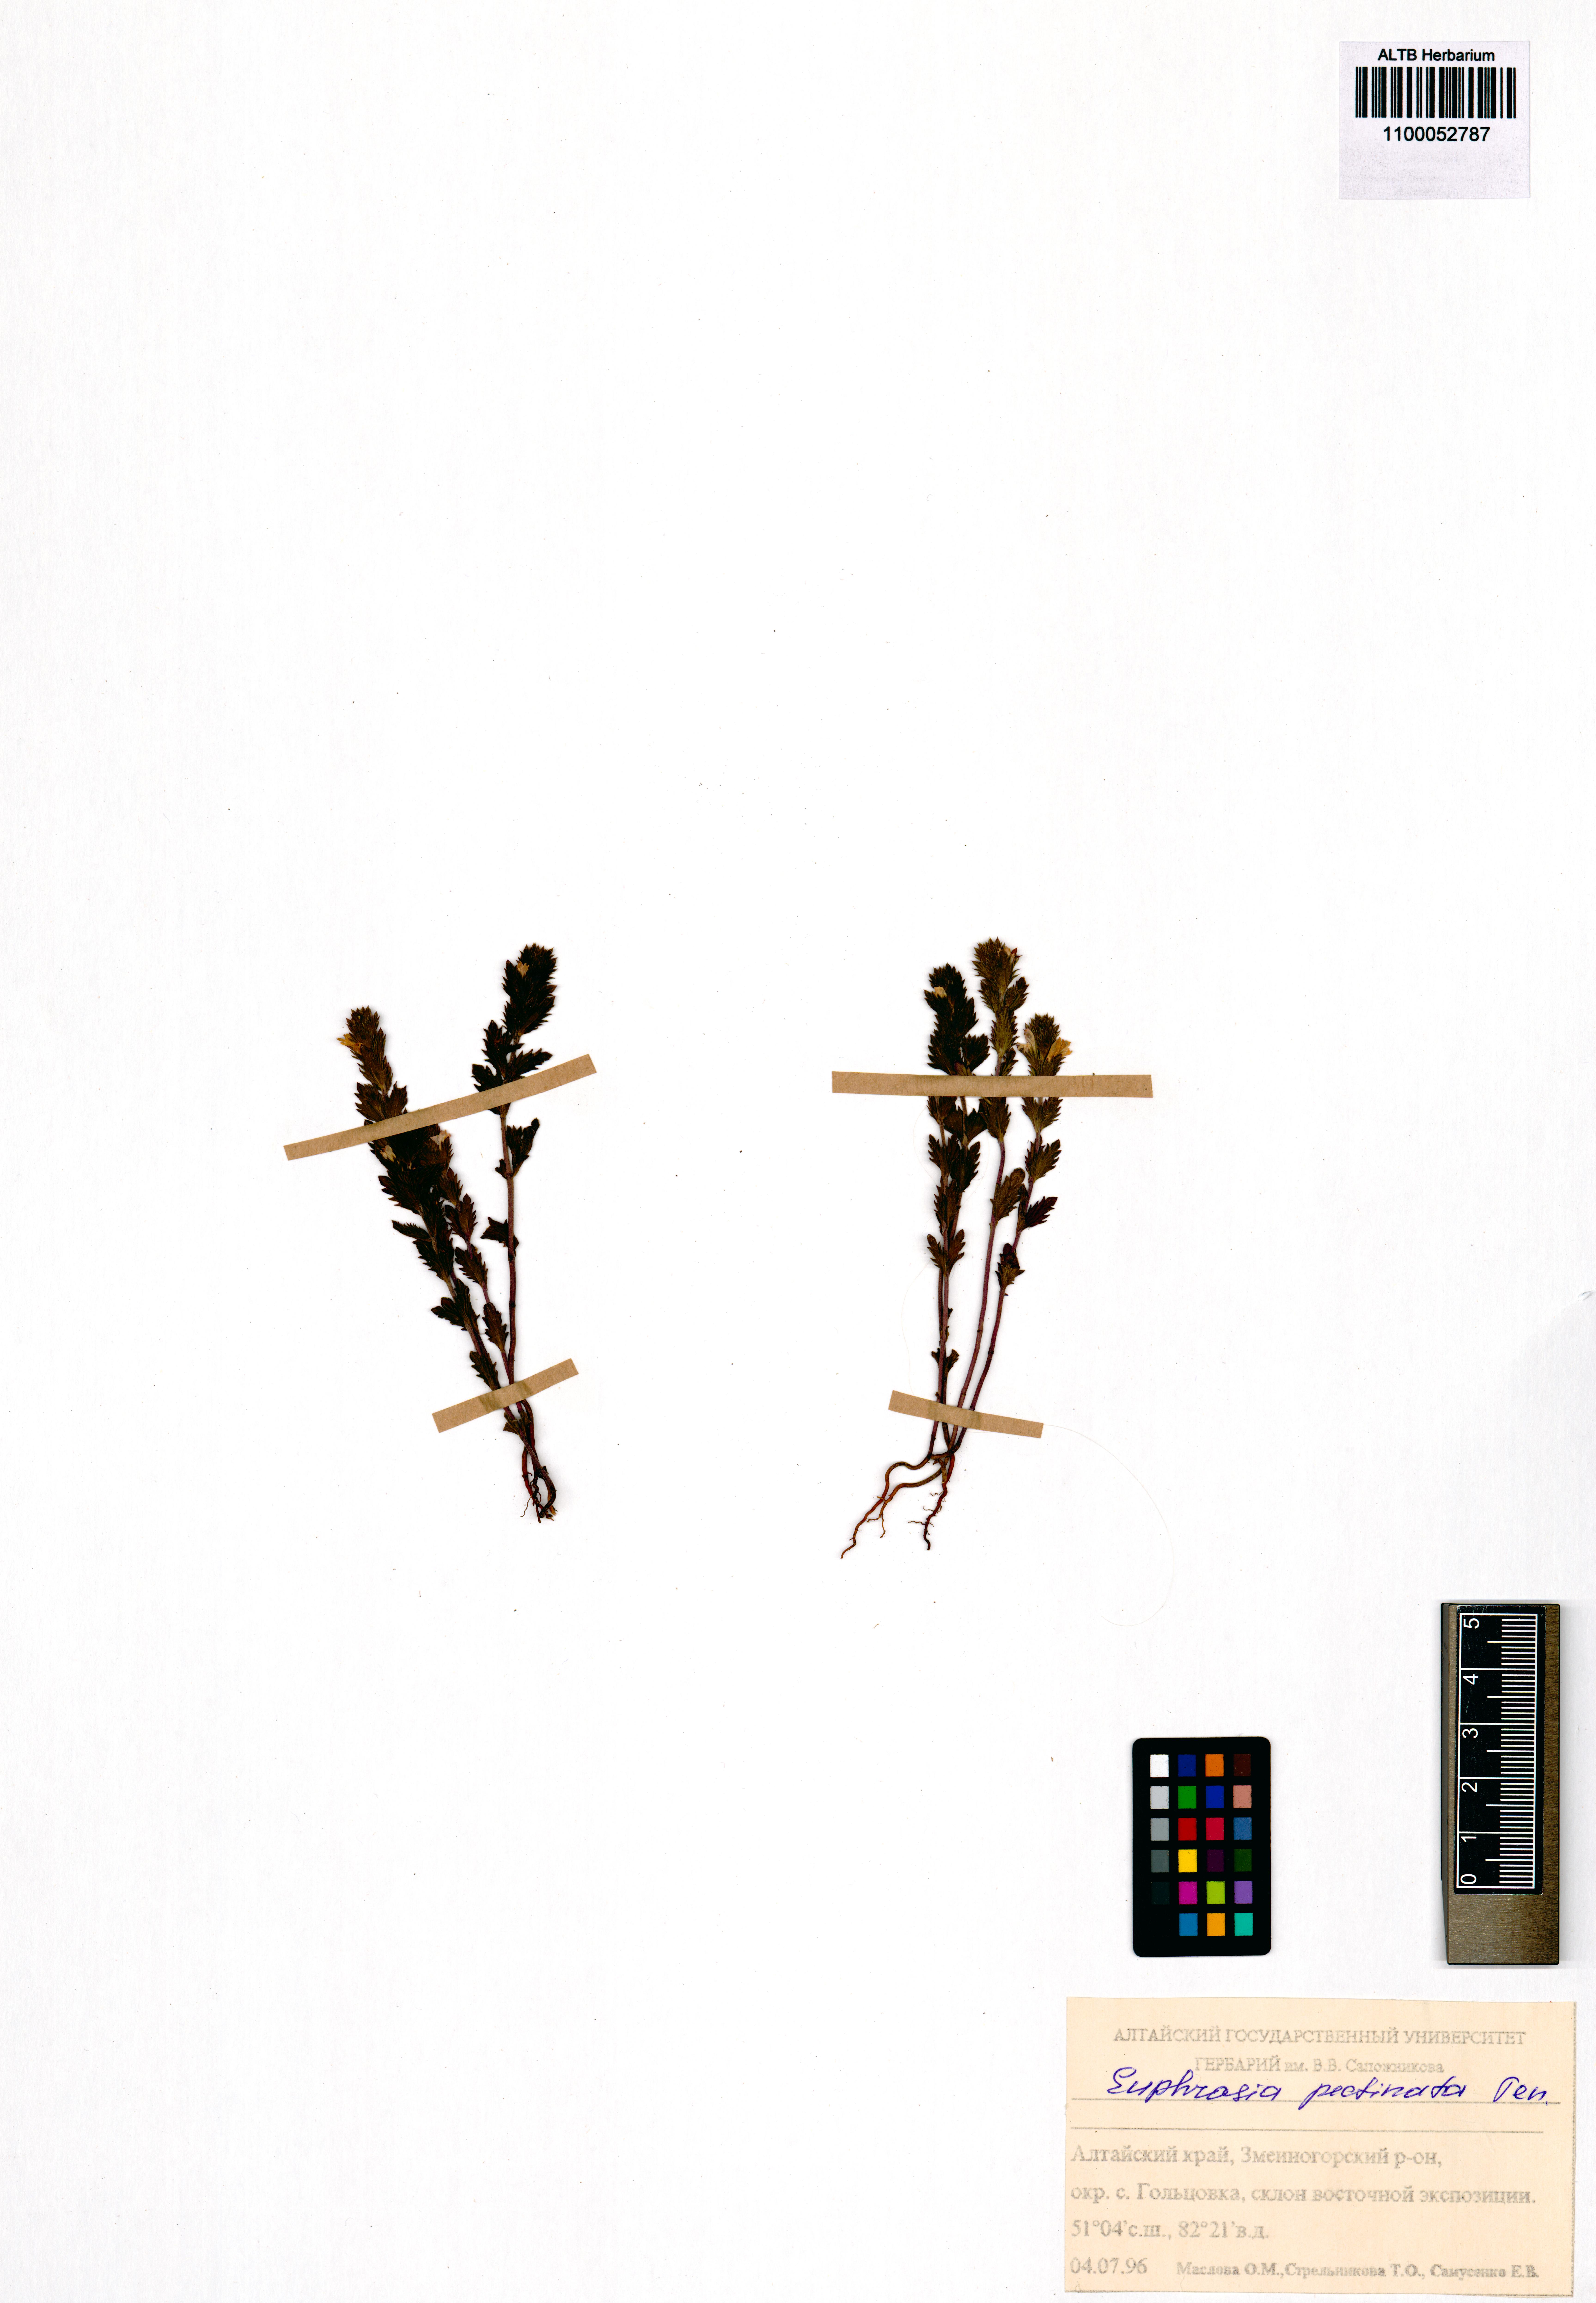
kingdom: Plantae
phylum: Tracheophyta
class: Magnoliopsida
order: Lamiales
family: Orobanchaceae
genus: Euphrasia
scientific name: Euphrasia pectinata
